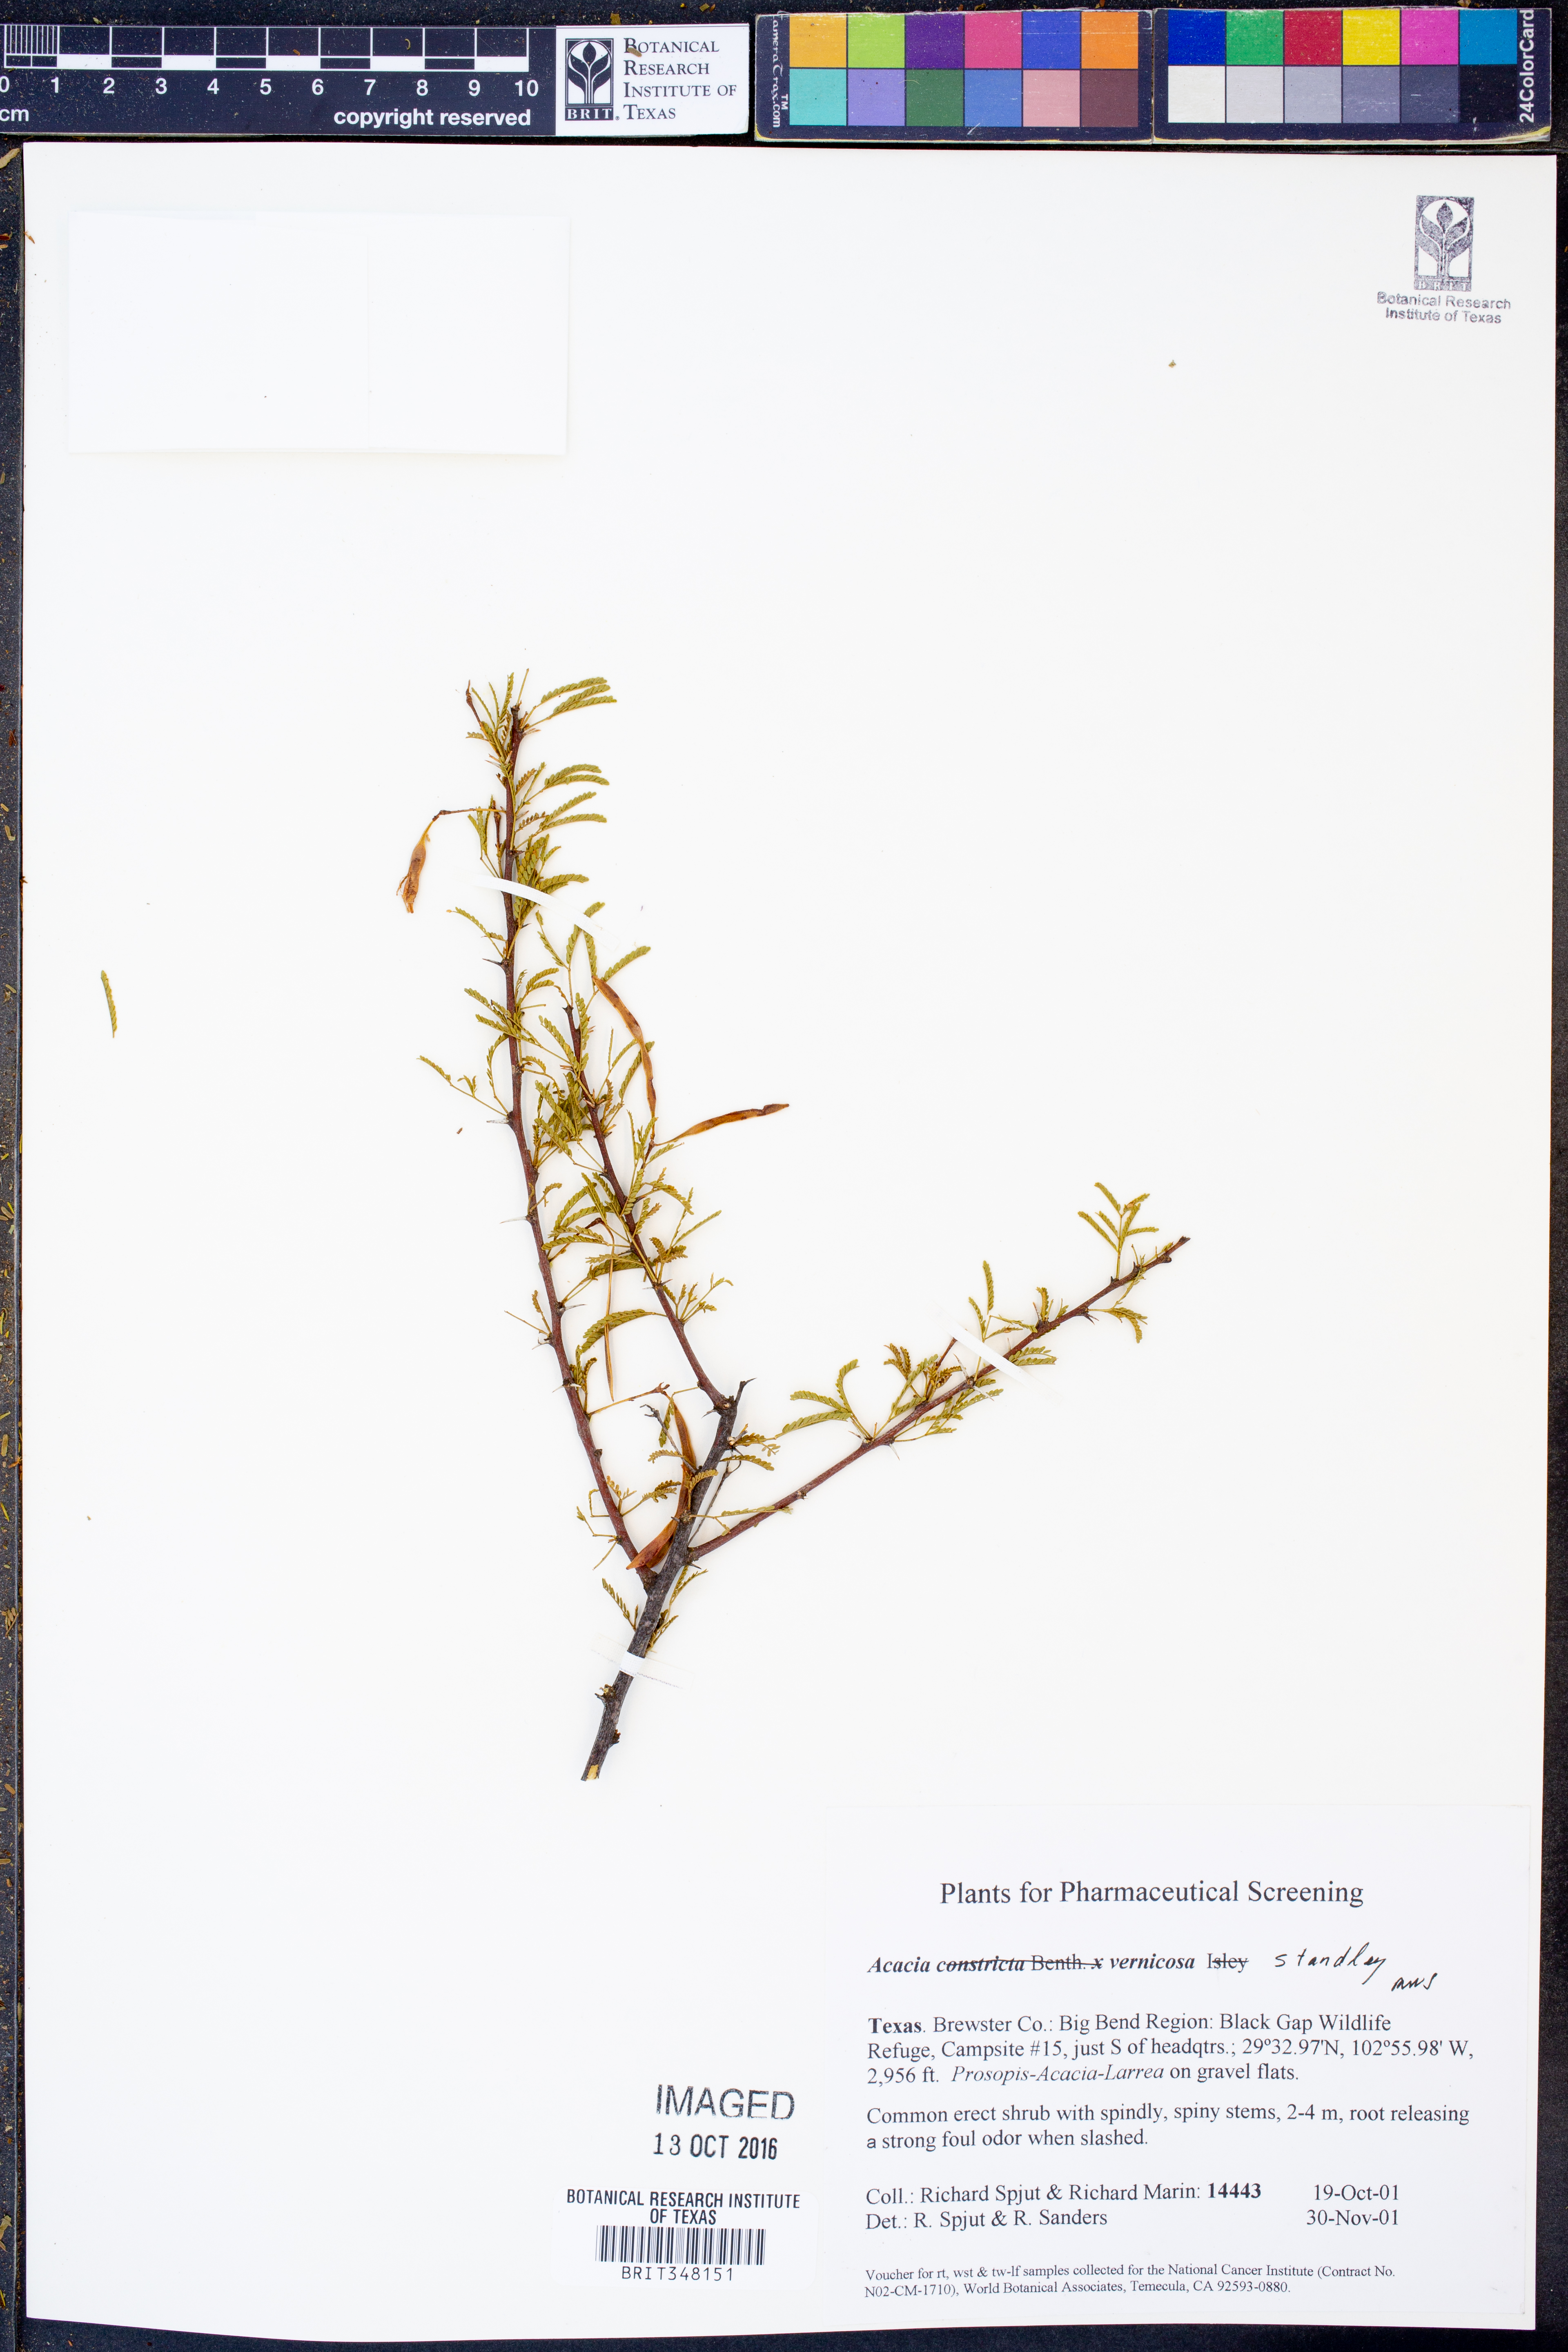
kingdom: Plantae
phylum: Tracheophyta
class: Magnoliopsida
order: Fabales
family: Fabaceae
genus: Vachellia
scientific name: Vachellia vernicosa
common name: Viscid acacia
